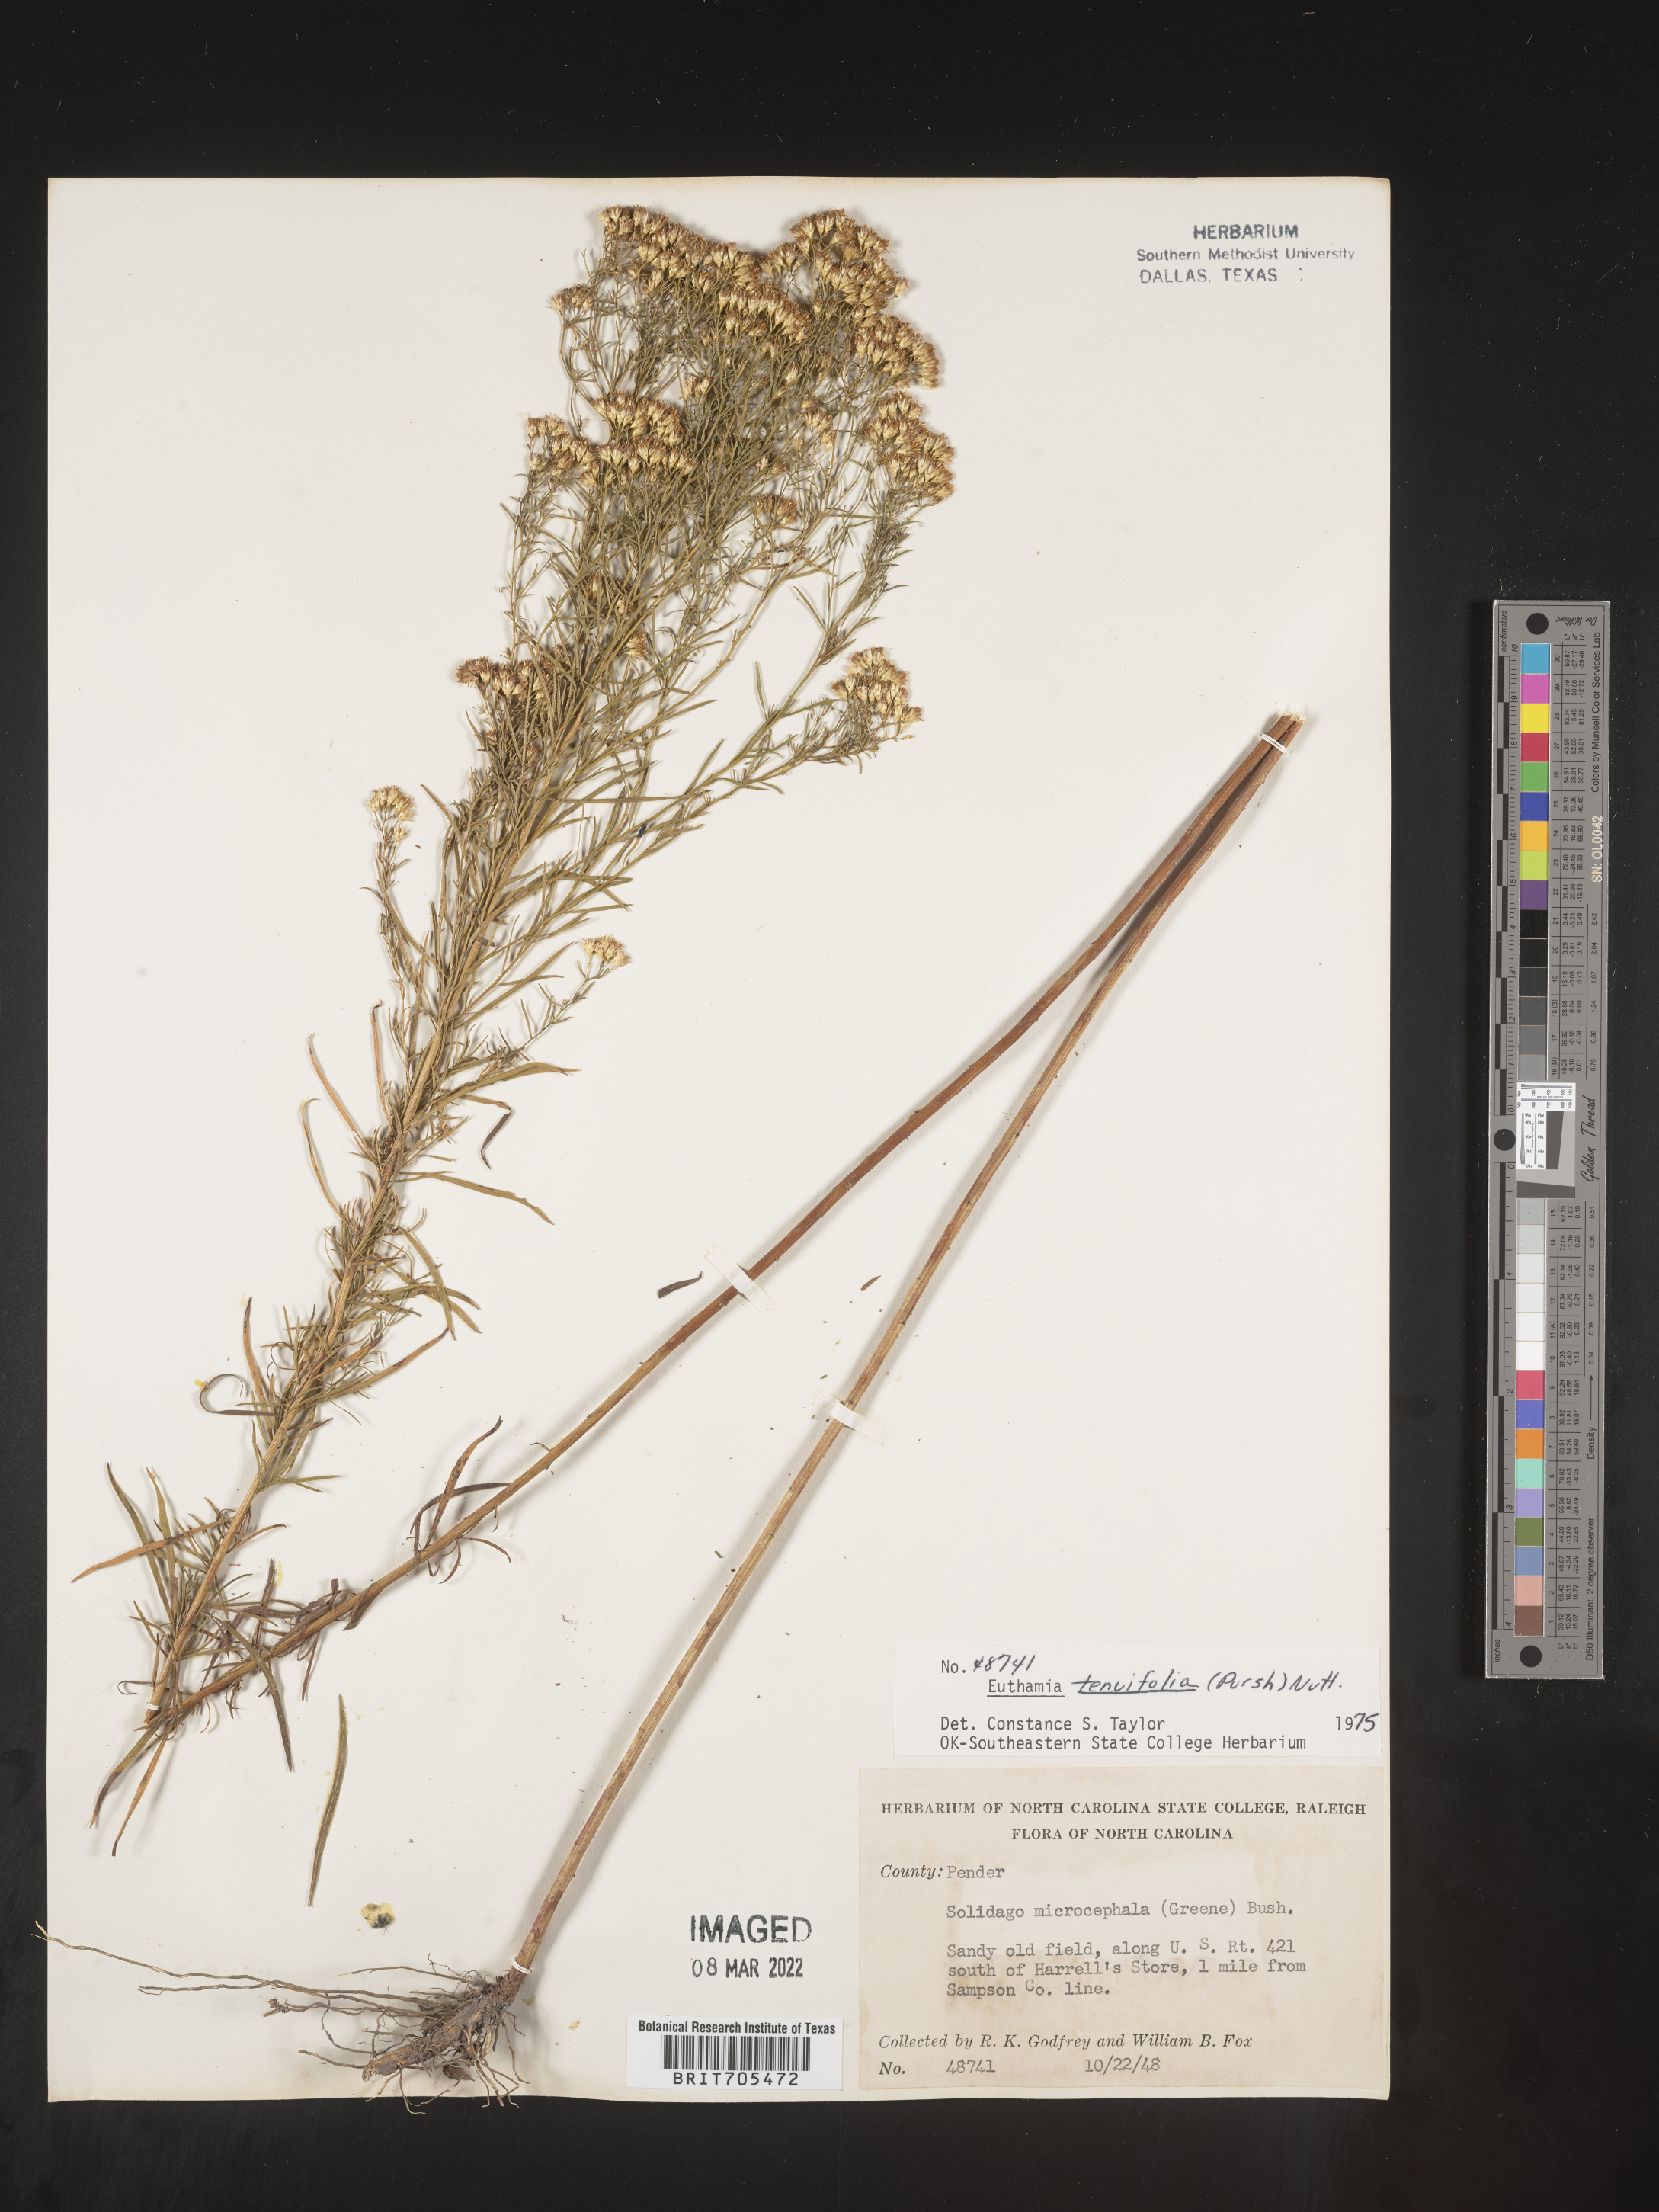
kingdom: Plantae
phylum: Tracheophyta
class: Magnoliopsida
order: Asterales
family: Asteraceae
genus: Euthamia
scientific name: Euthamia caroliniana
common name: Coastal plain goldentop
